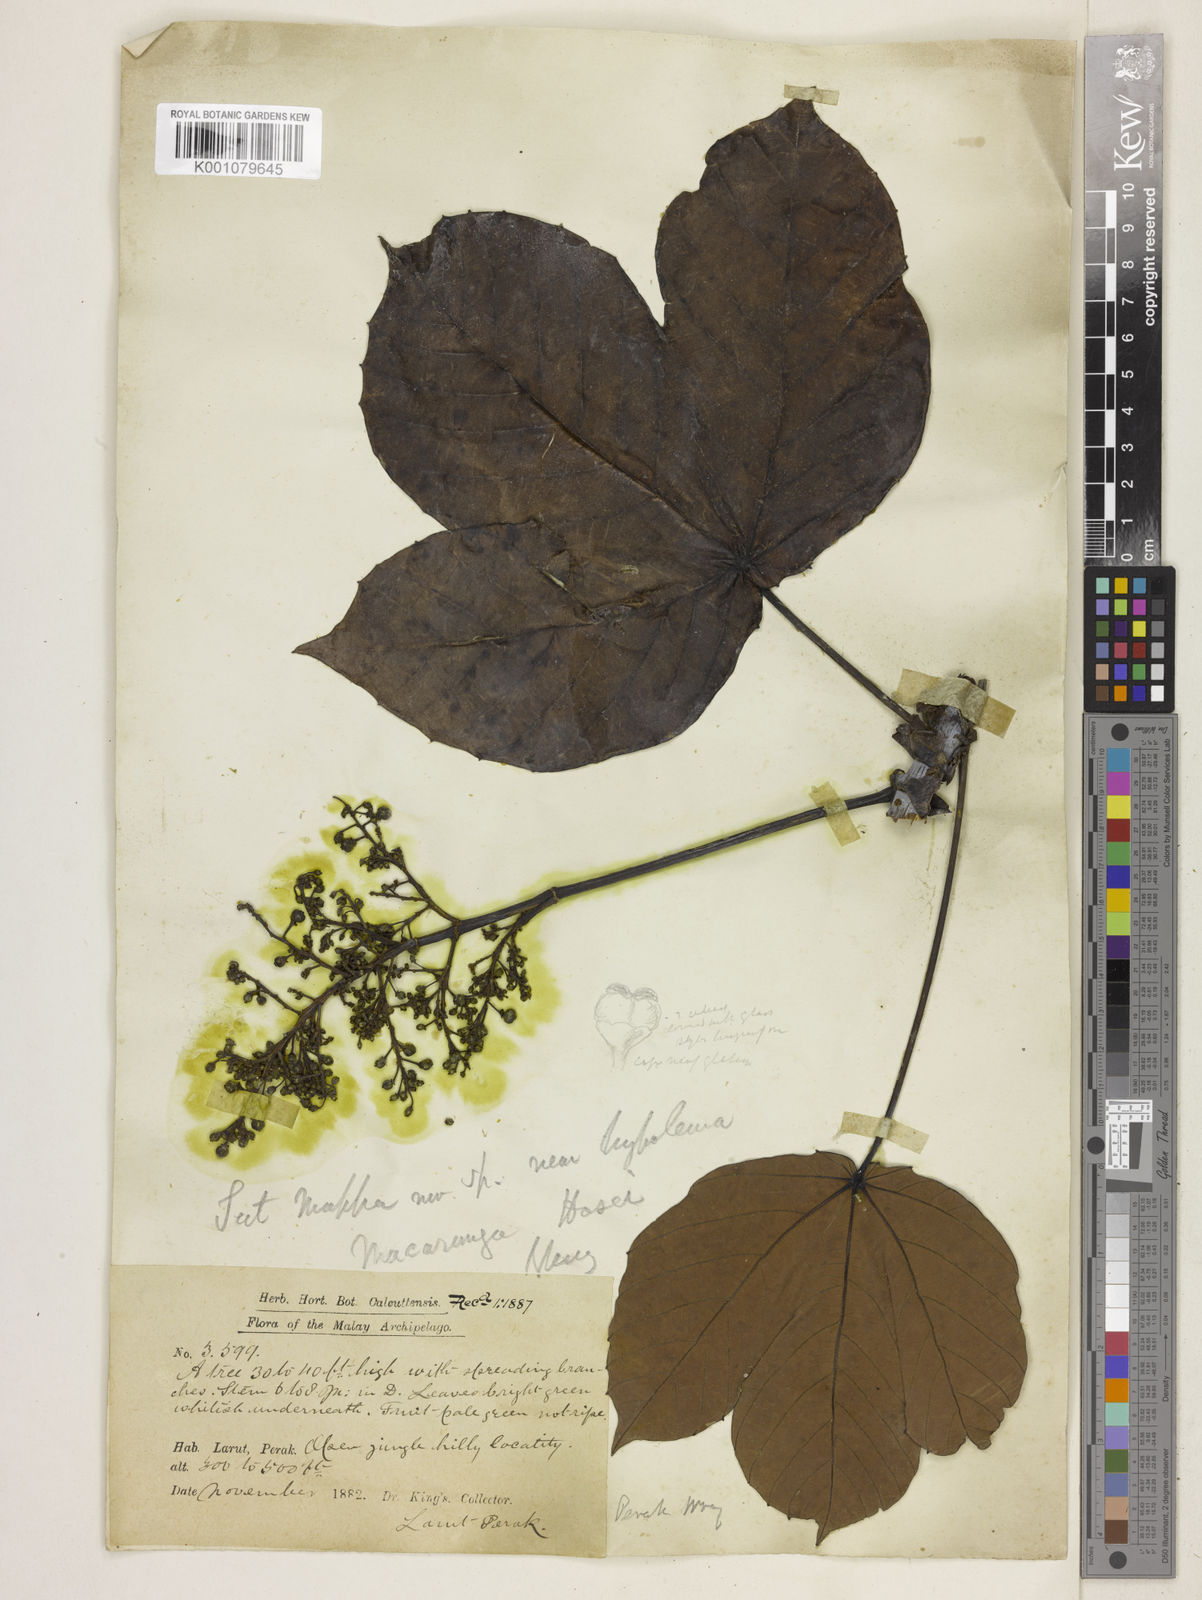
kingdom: Plantae
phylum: Tracheophyta
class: Magnoliopsida
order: Malpighiales
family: Euphorbiaceae
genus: Macaranga
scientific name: Macaranga hosei
